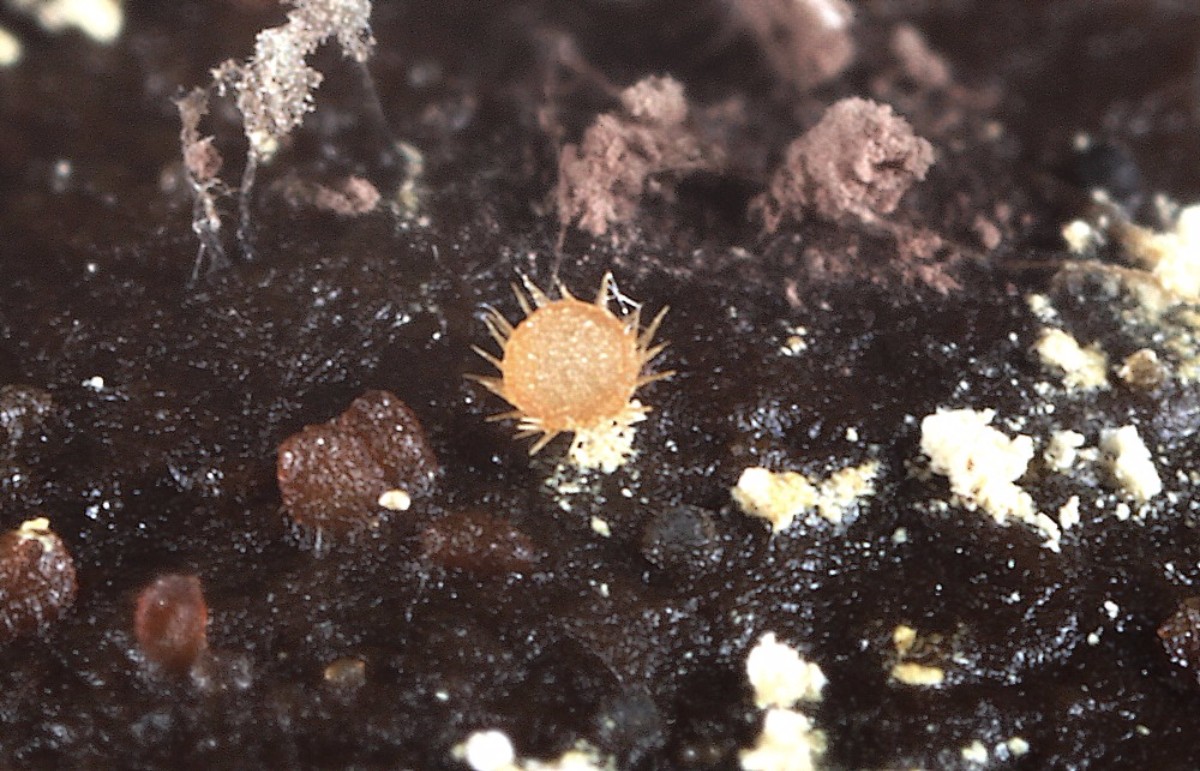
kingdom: Fungi
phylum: Ascomycota
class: Pezizomycetes
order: Pezizales
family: Ascodesmidaceae
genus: Lasiobolus
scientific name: Lasiobolus
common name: øjebæger
